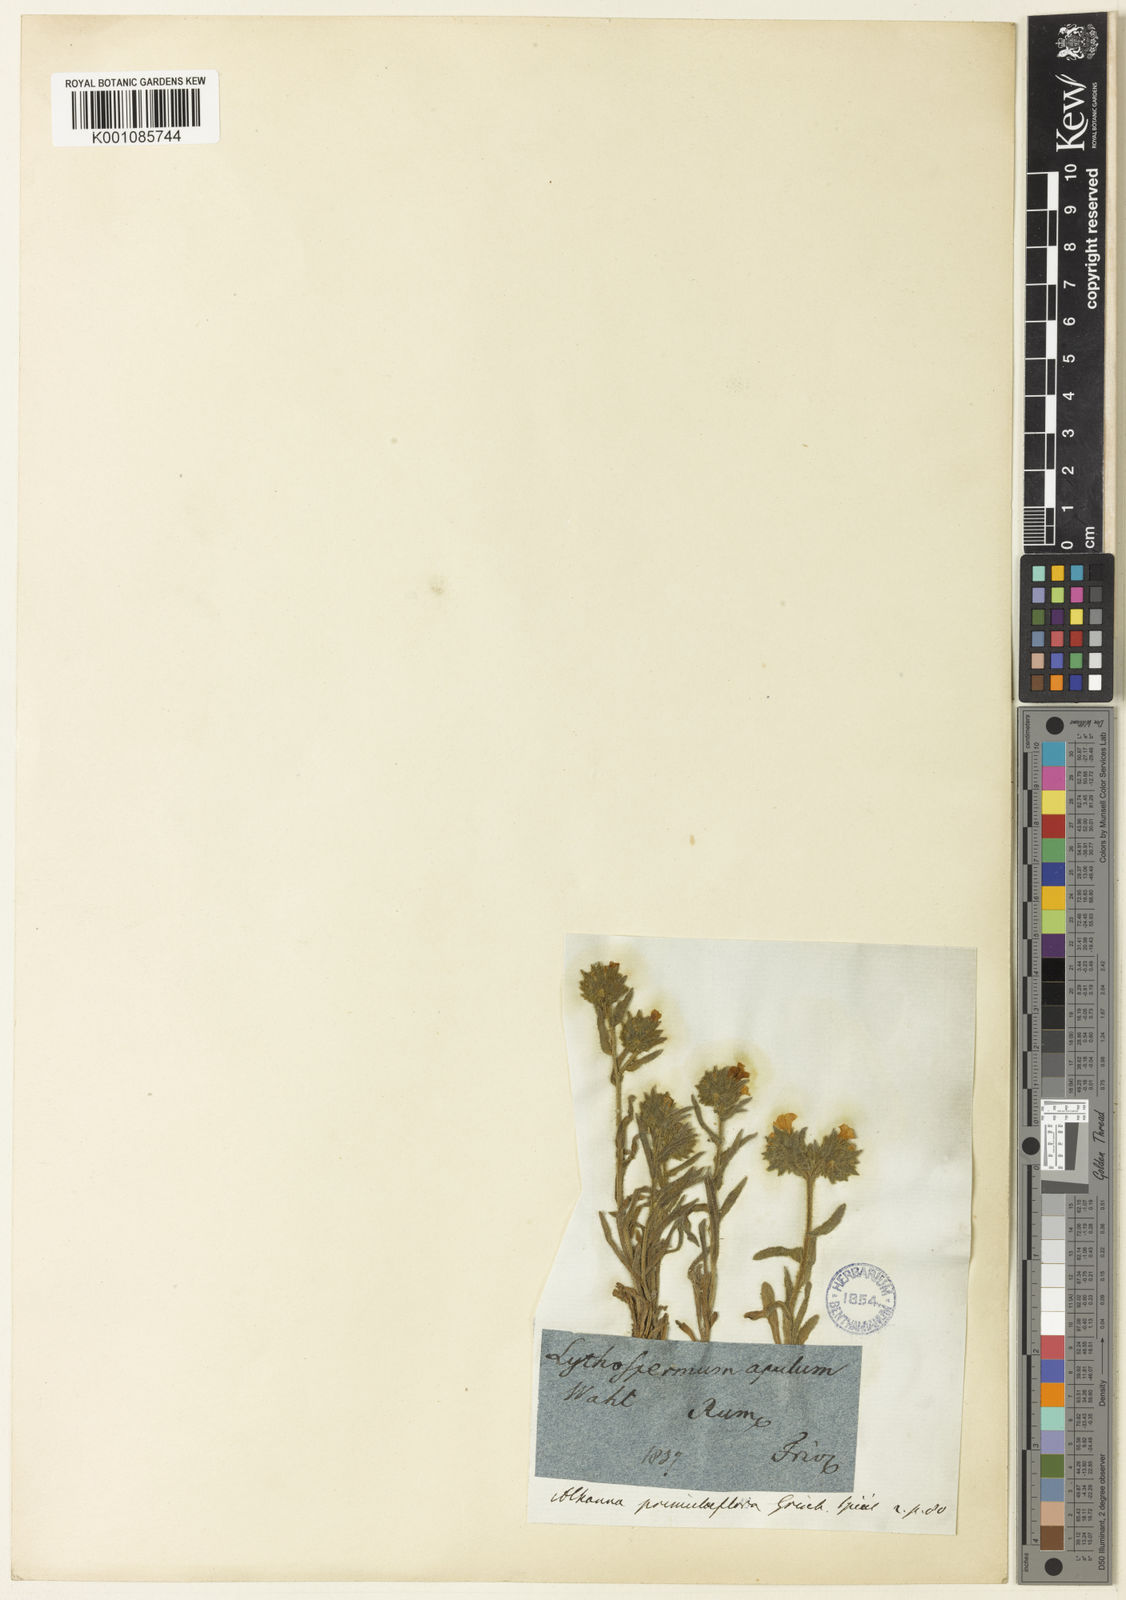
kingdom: Plantae
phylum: Tracheophyta
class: Magnoliopsida
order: Boraginales
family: Boraginaceae
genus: Alkanna
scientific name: Alkanna primuliflora
